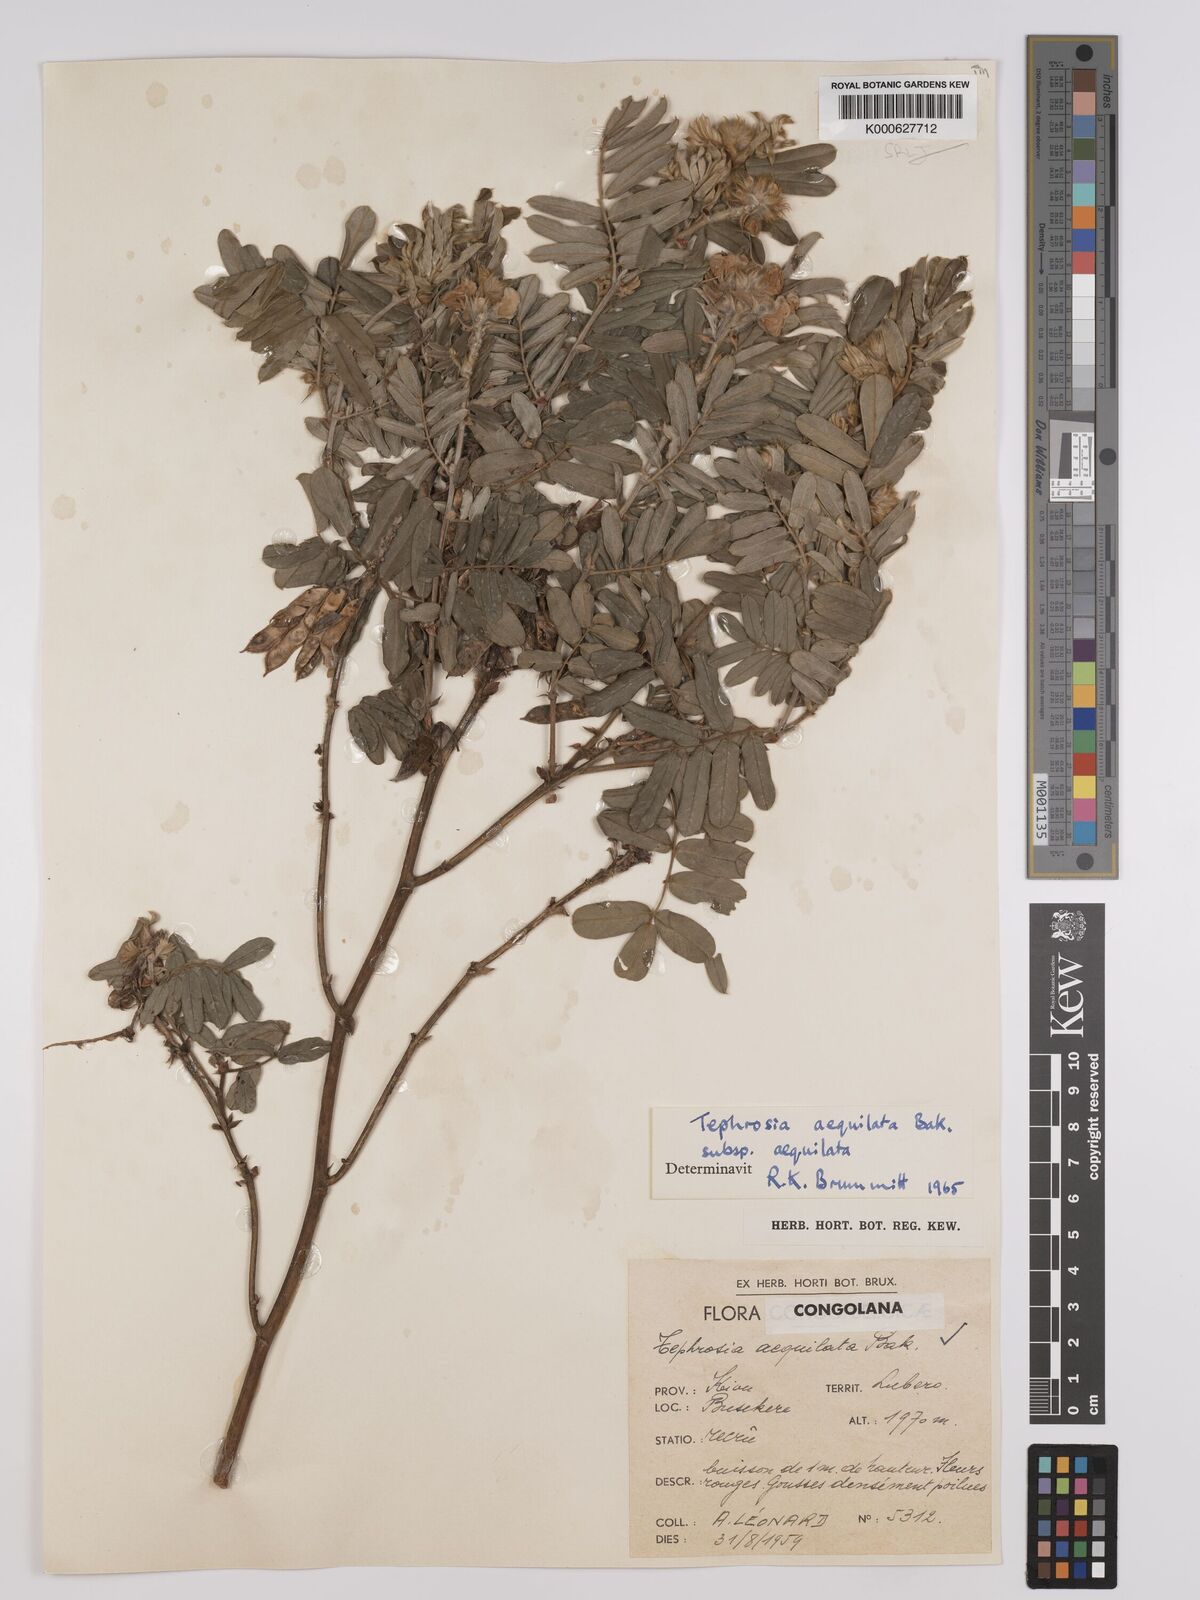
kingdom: Plantae
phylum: Tracheophyta
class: Magnoliopsida
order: Fabales
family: Fabaceae
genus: Tephrosia
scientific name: Tephrosia
